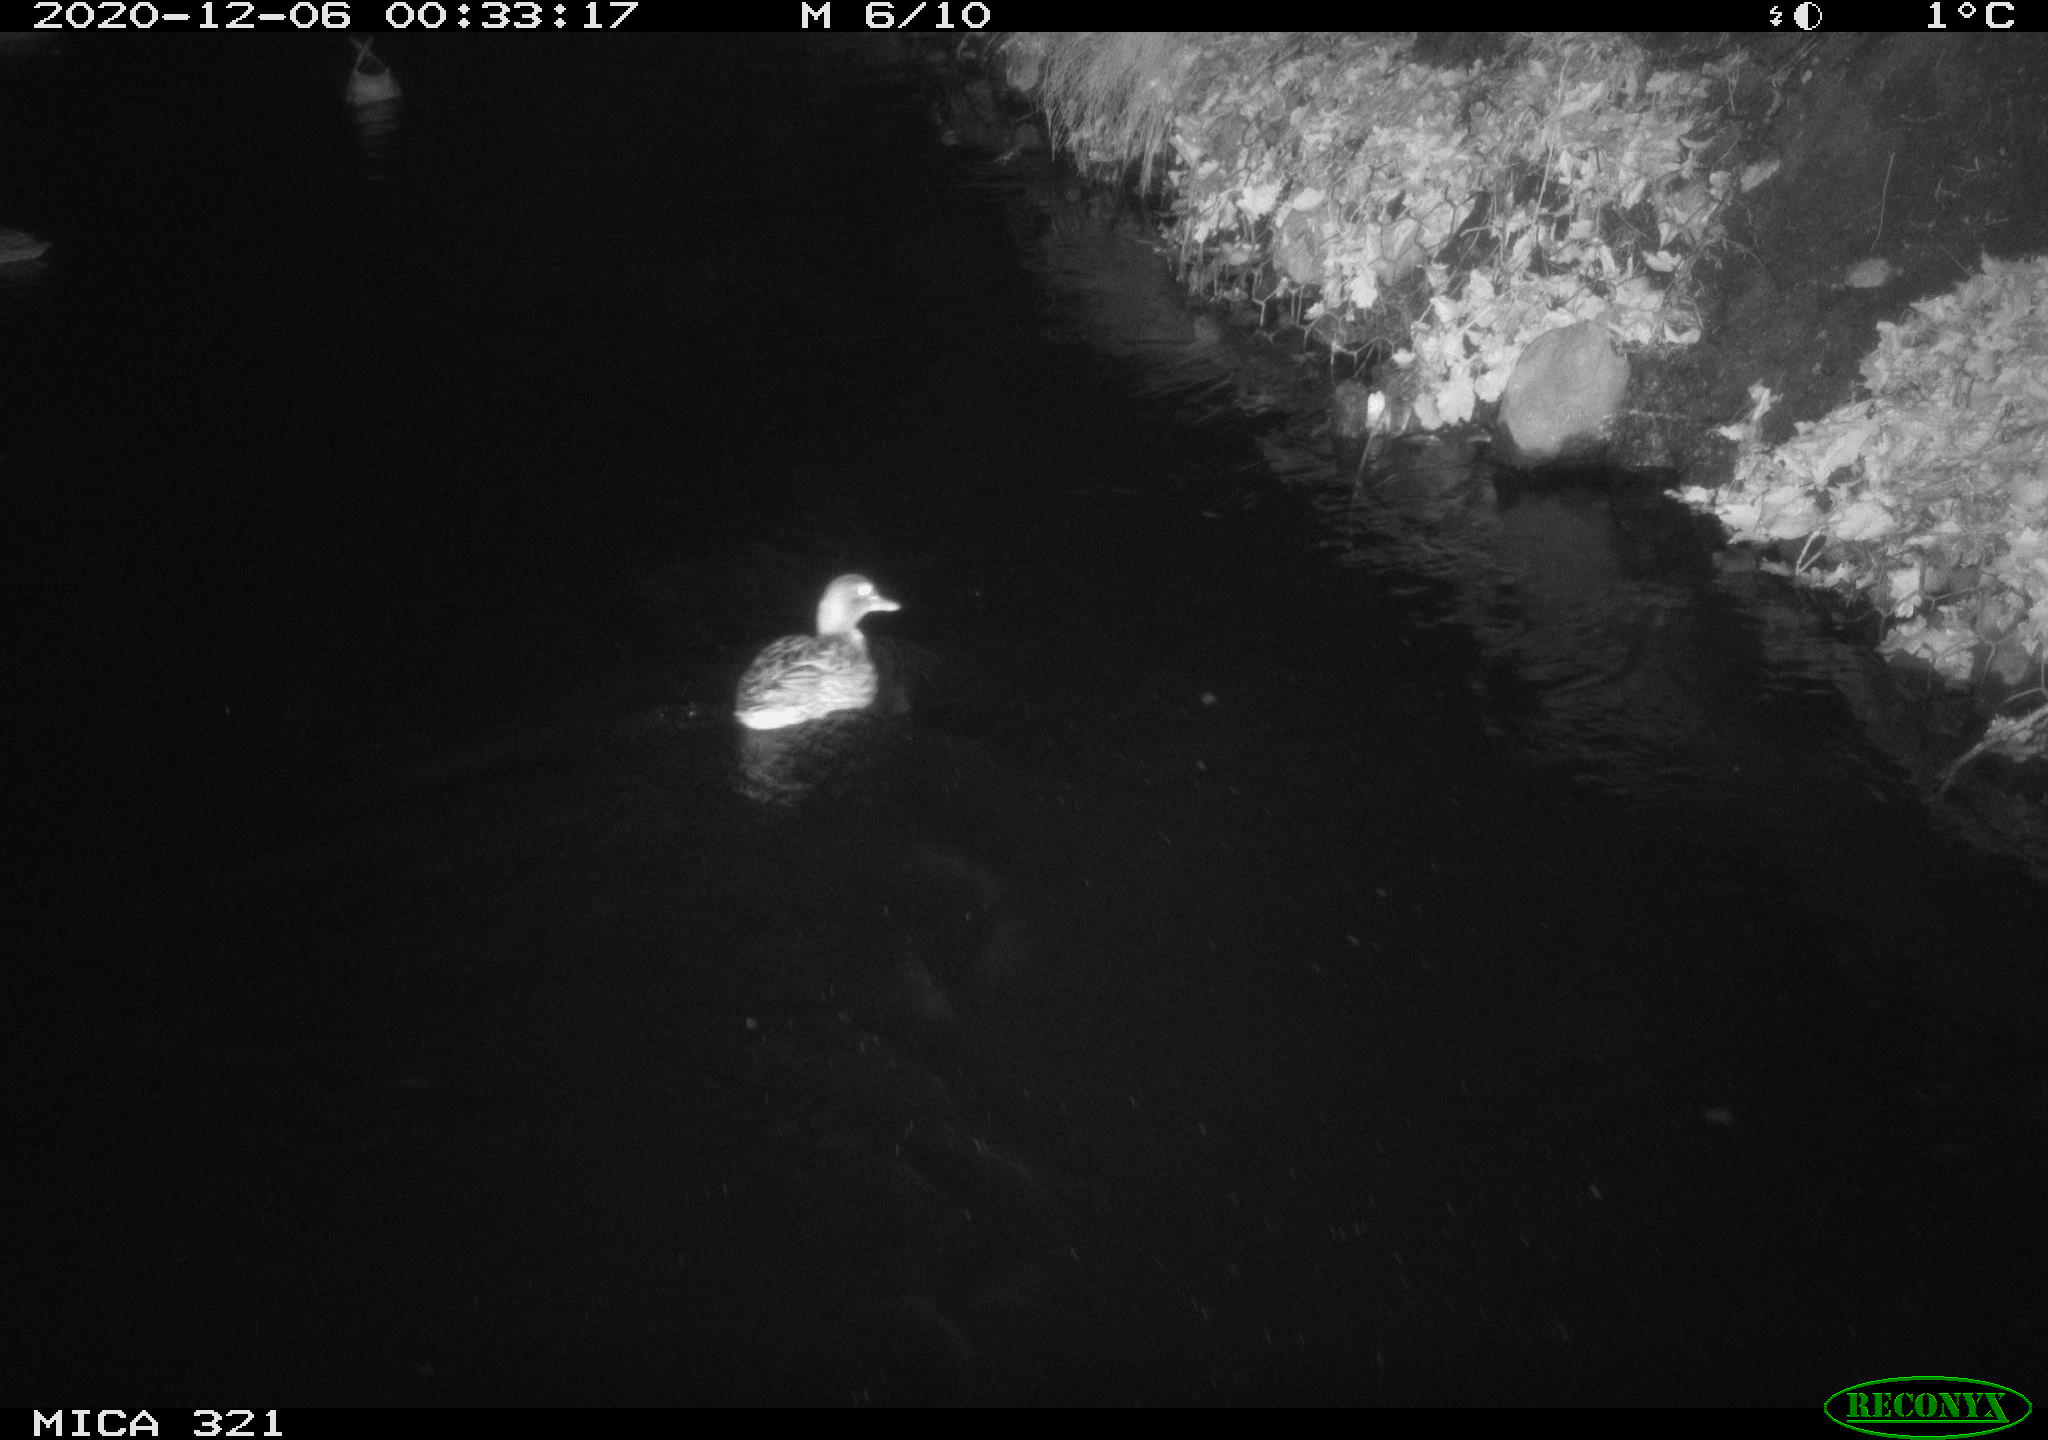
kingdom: Animalia
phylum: Chordata
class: Aves
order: Anseriformes
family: Anatidae
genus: Anas
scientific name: Anas platyrhynchos
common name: Mallard
